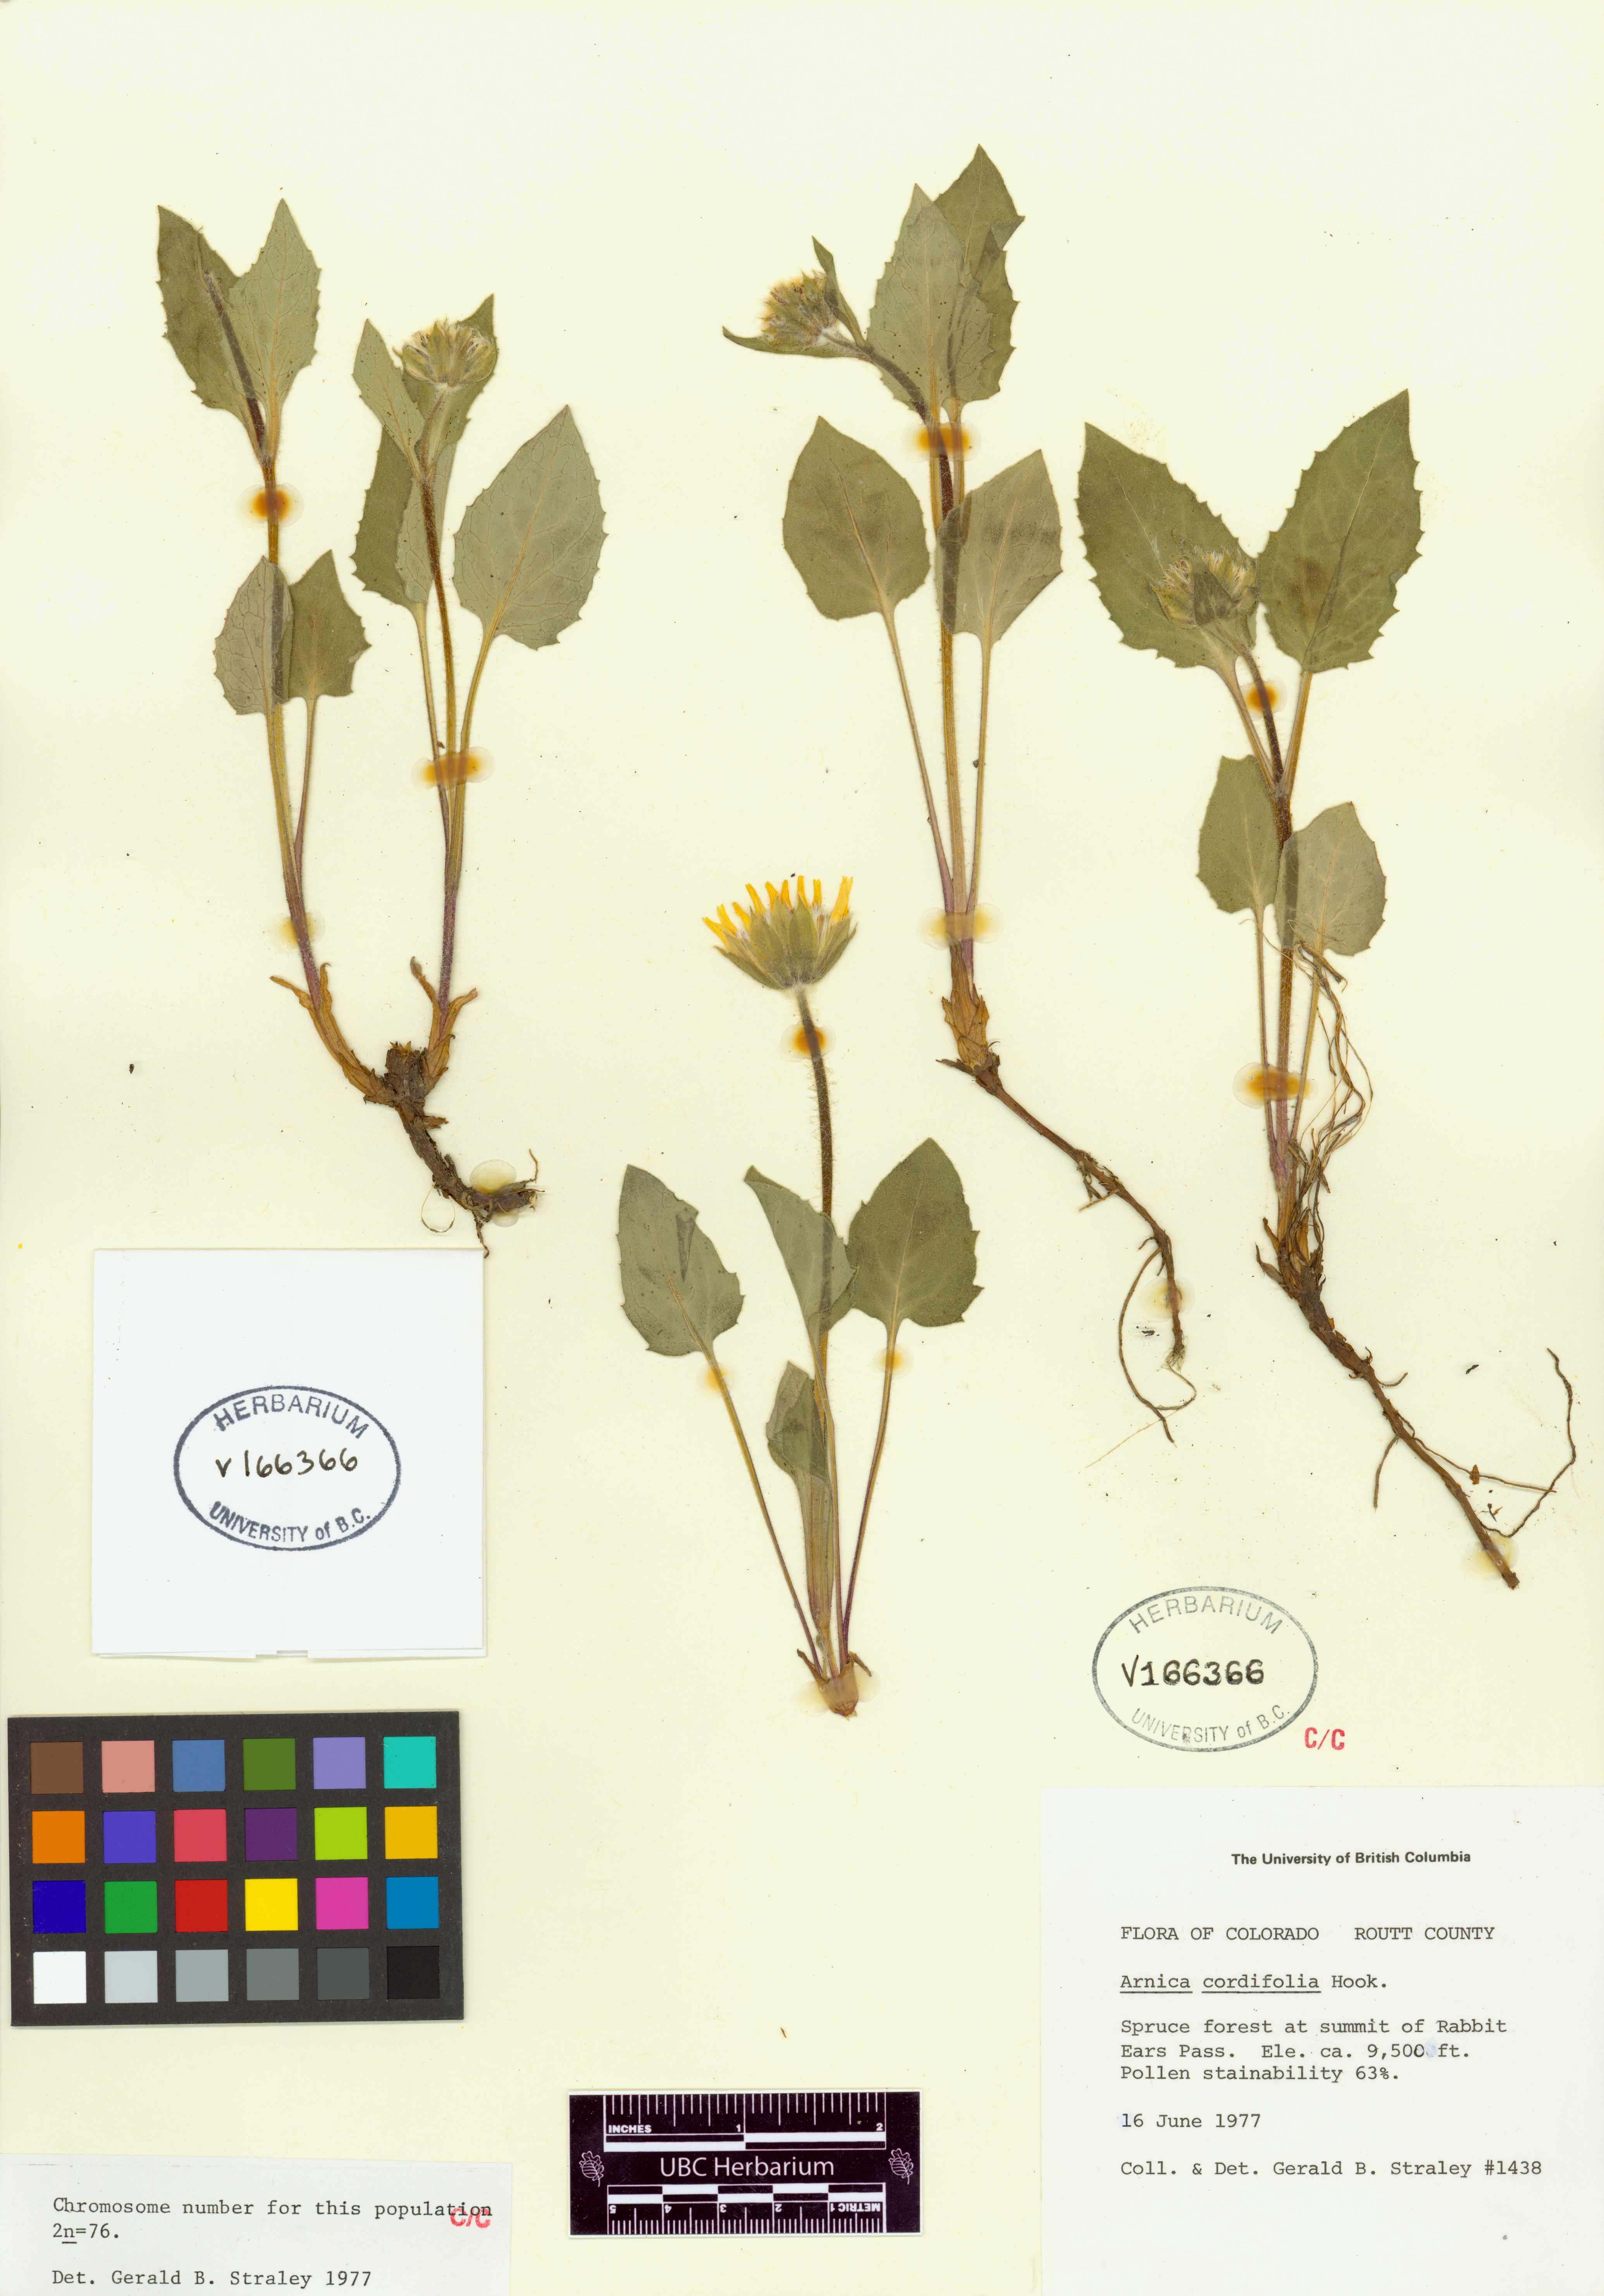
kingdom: Plantae
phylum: Tracheophyta
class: Magnoliopsida
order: Asterales
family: Asteraceae
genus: Arnica
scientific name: Arnica cordifolia
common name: Heart-leaf arnica
